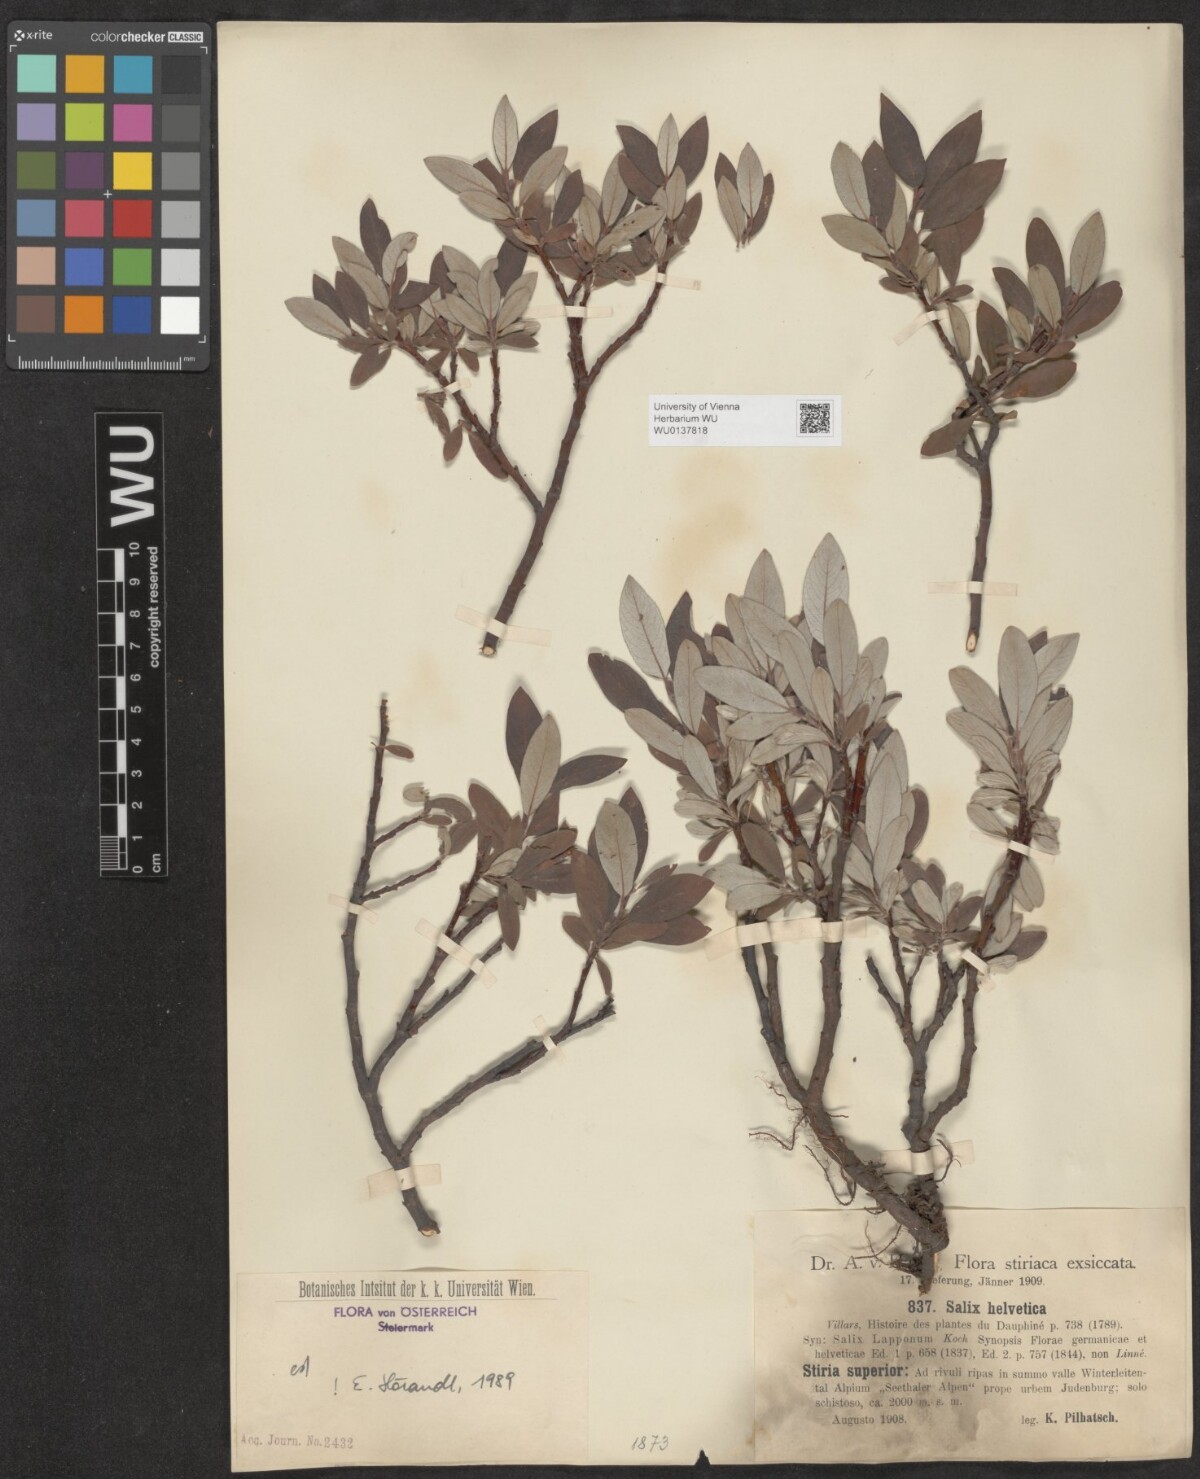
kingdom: Plantae
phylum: Tracheophyta
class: Magnoliopsida
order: Malpighiales
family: Salicaceae
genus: Salix
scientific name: Salix helvetica
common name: Swiss willow
